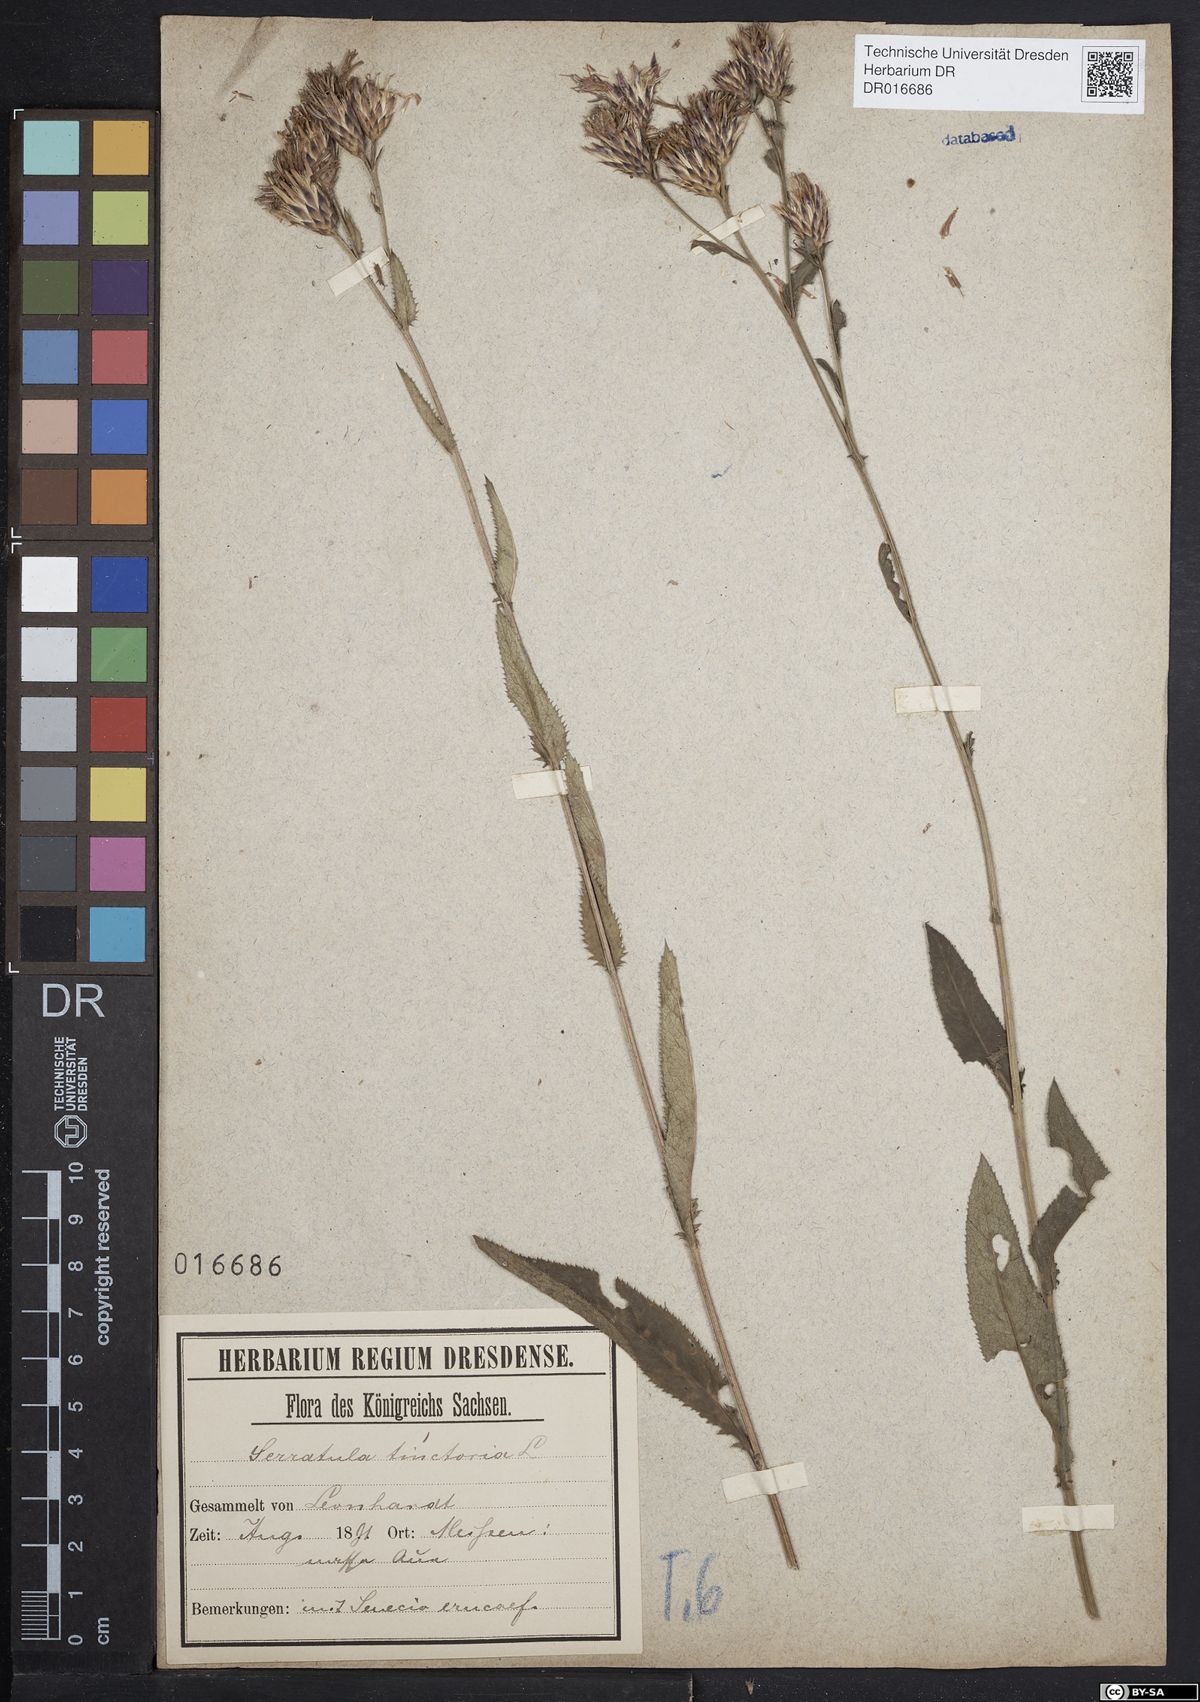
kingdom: Plantae
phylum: Tracheophyta
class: Magnoliopsida
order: Asterales
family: Asteraceae
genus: Serratula
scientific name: Serratula tinctoria
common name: Saw-wort
